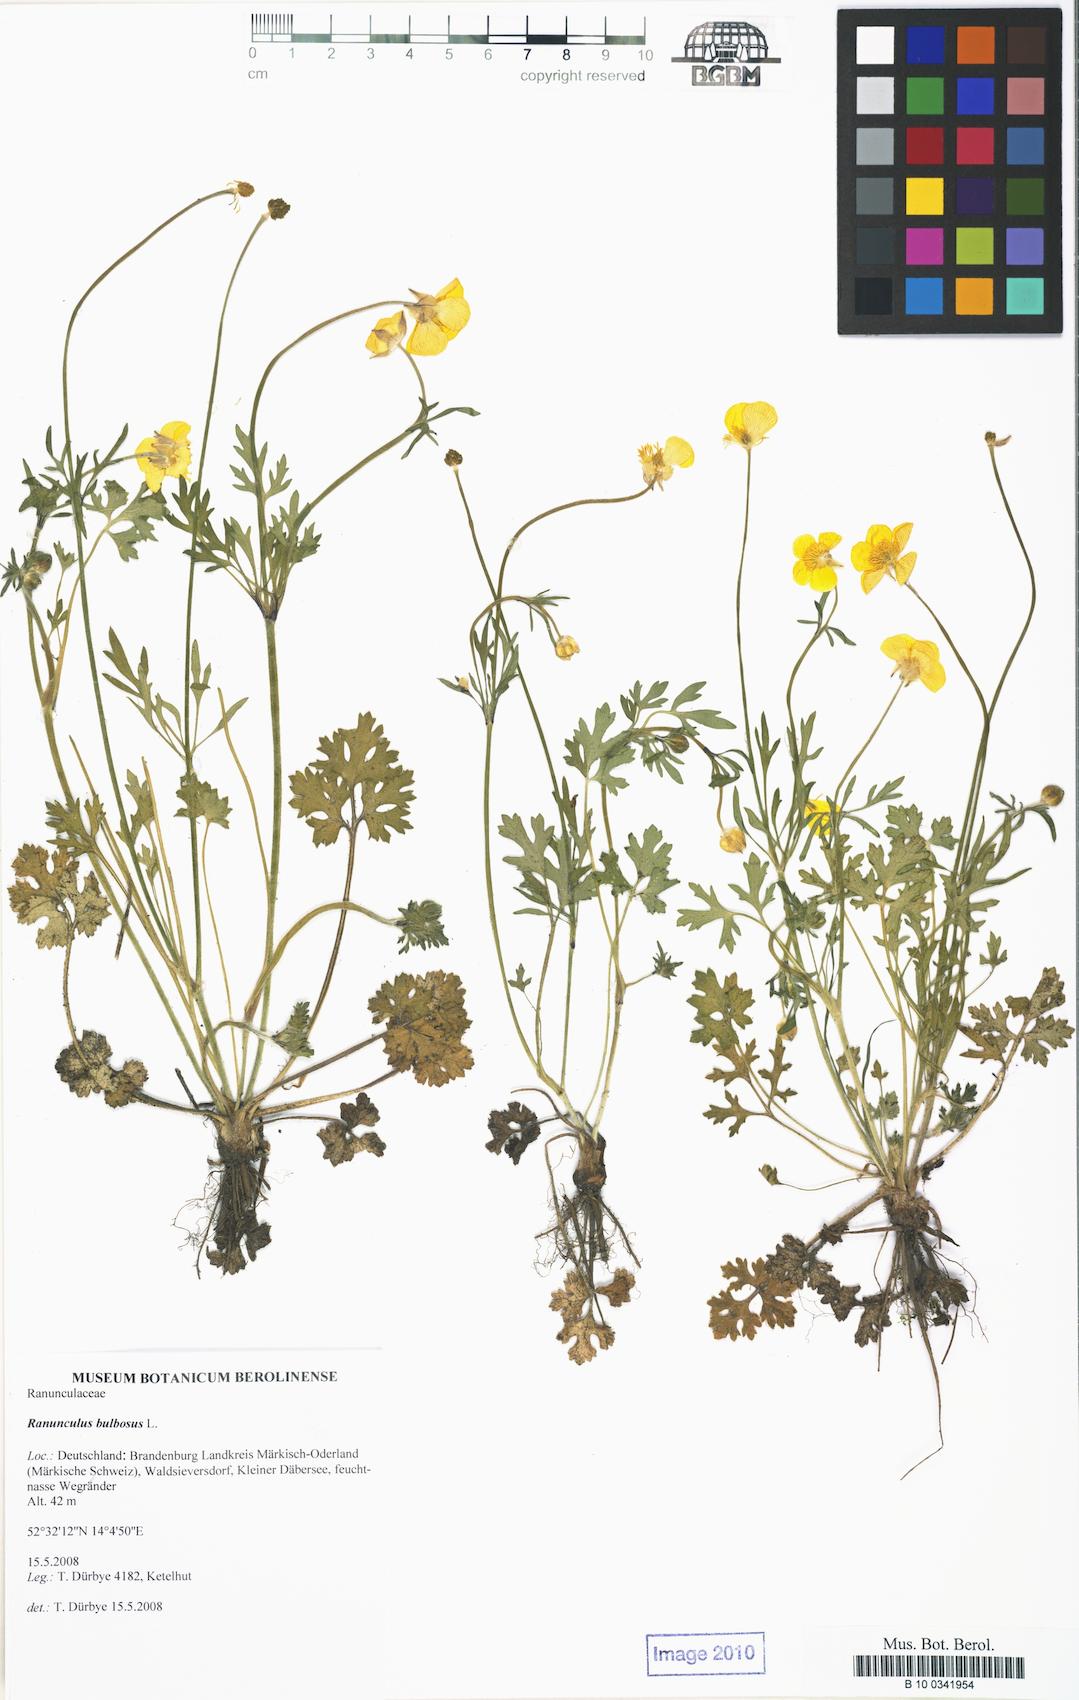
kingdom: Plantae
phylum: Tracheophyta
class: Magnoliopsida
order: Ranunculales
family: Ranunculaceae
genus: Ranunculus
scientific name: Ranunculus bulbosus
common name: Bulbous buttercup
